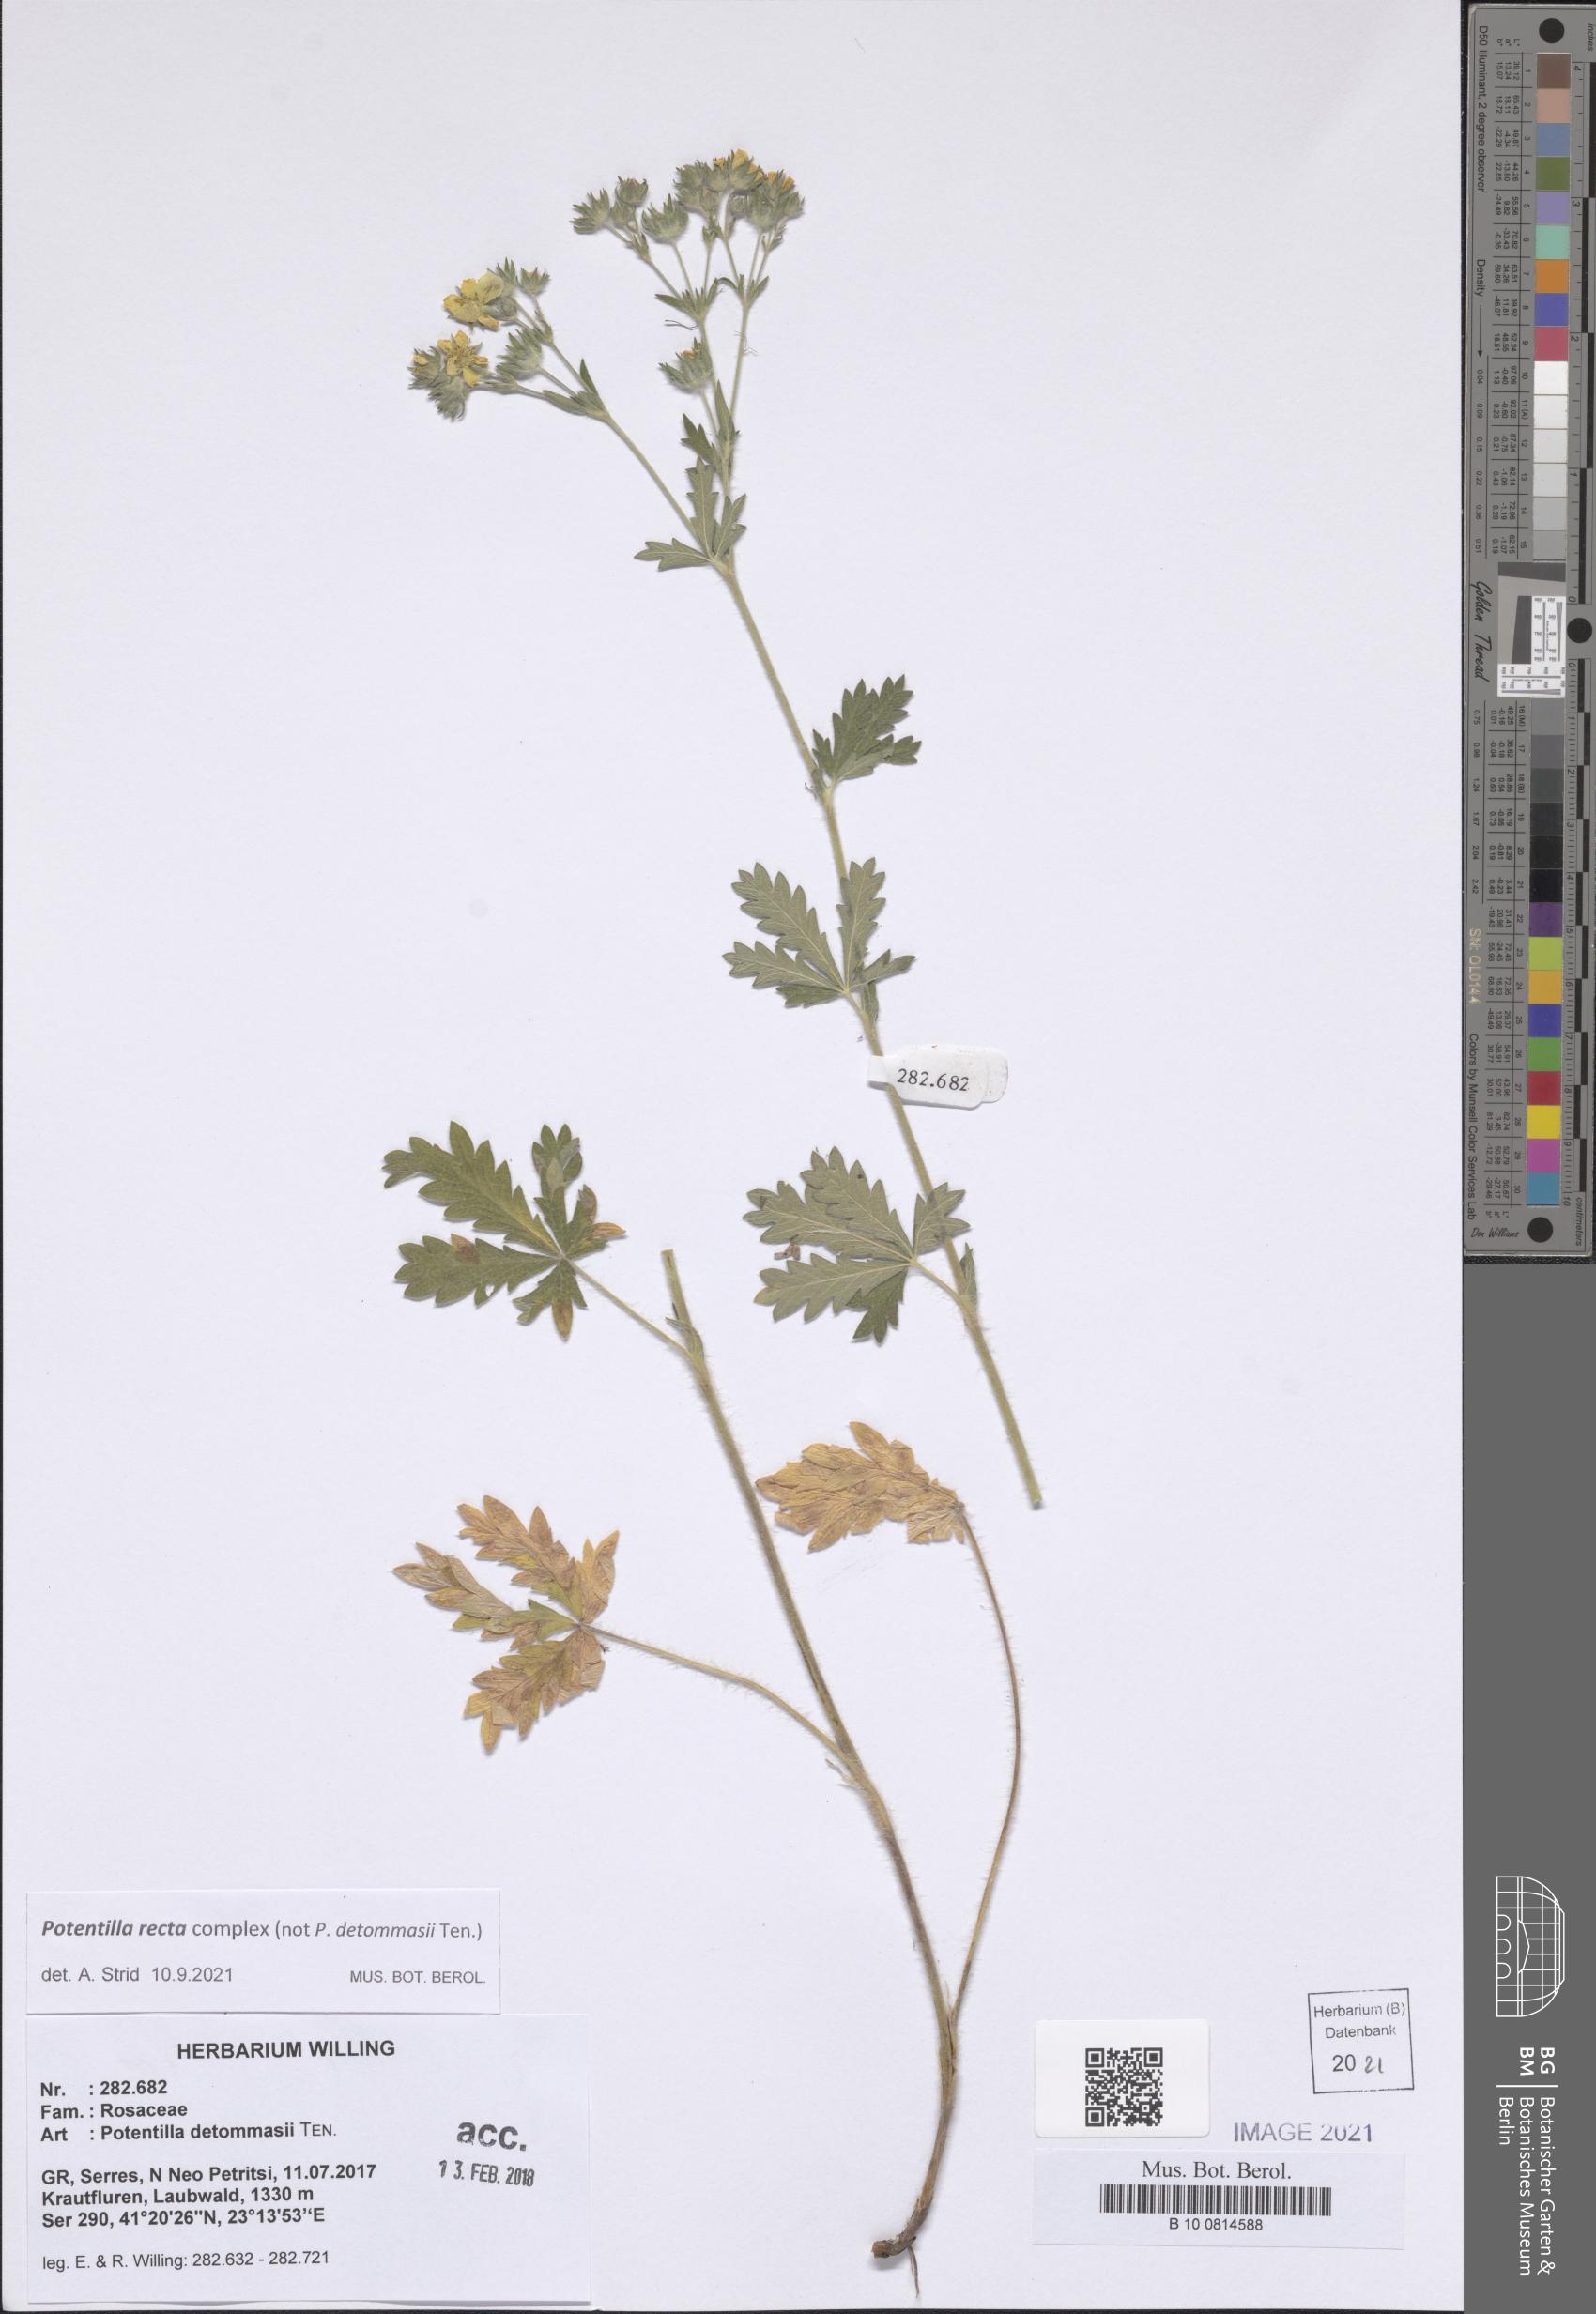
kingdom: Plantae
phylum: Tracheophyta
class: Magnoliopsida
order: Rosales
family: Rosaceae
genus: Potentilla
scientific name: Potentilla recta
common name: Sulphur cinquefoil
